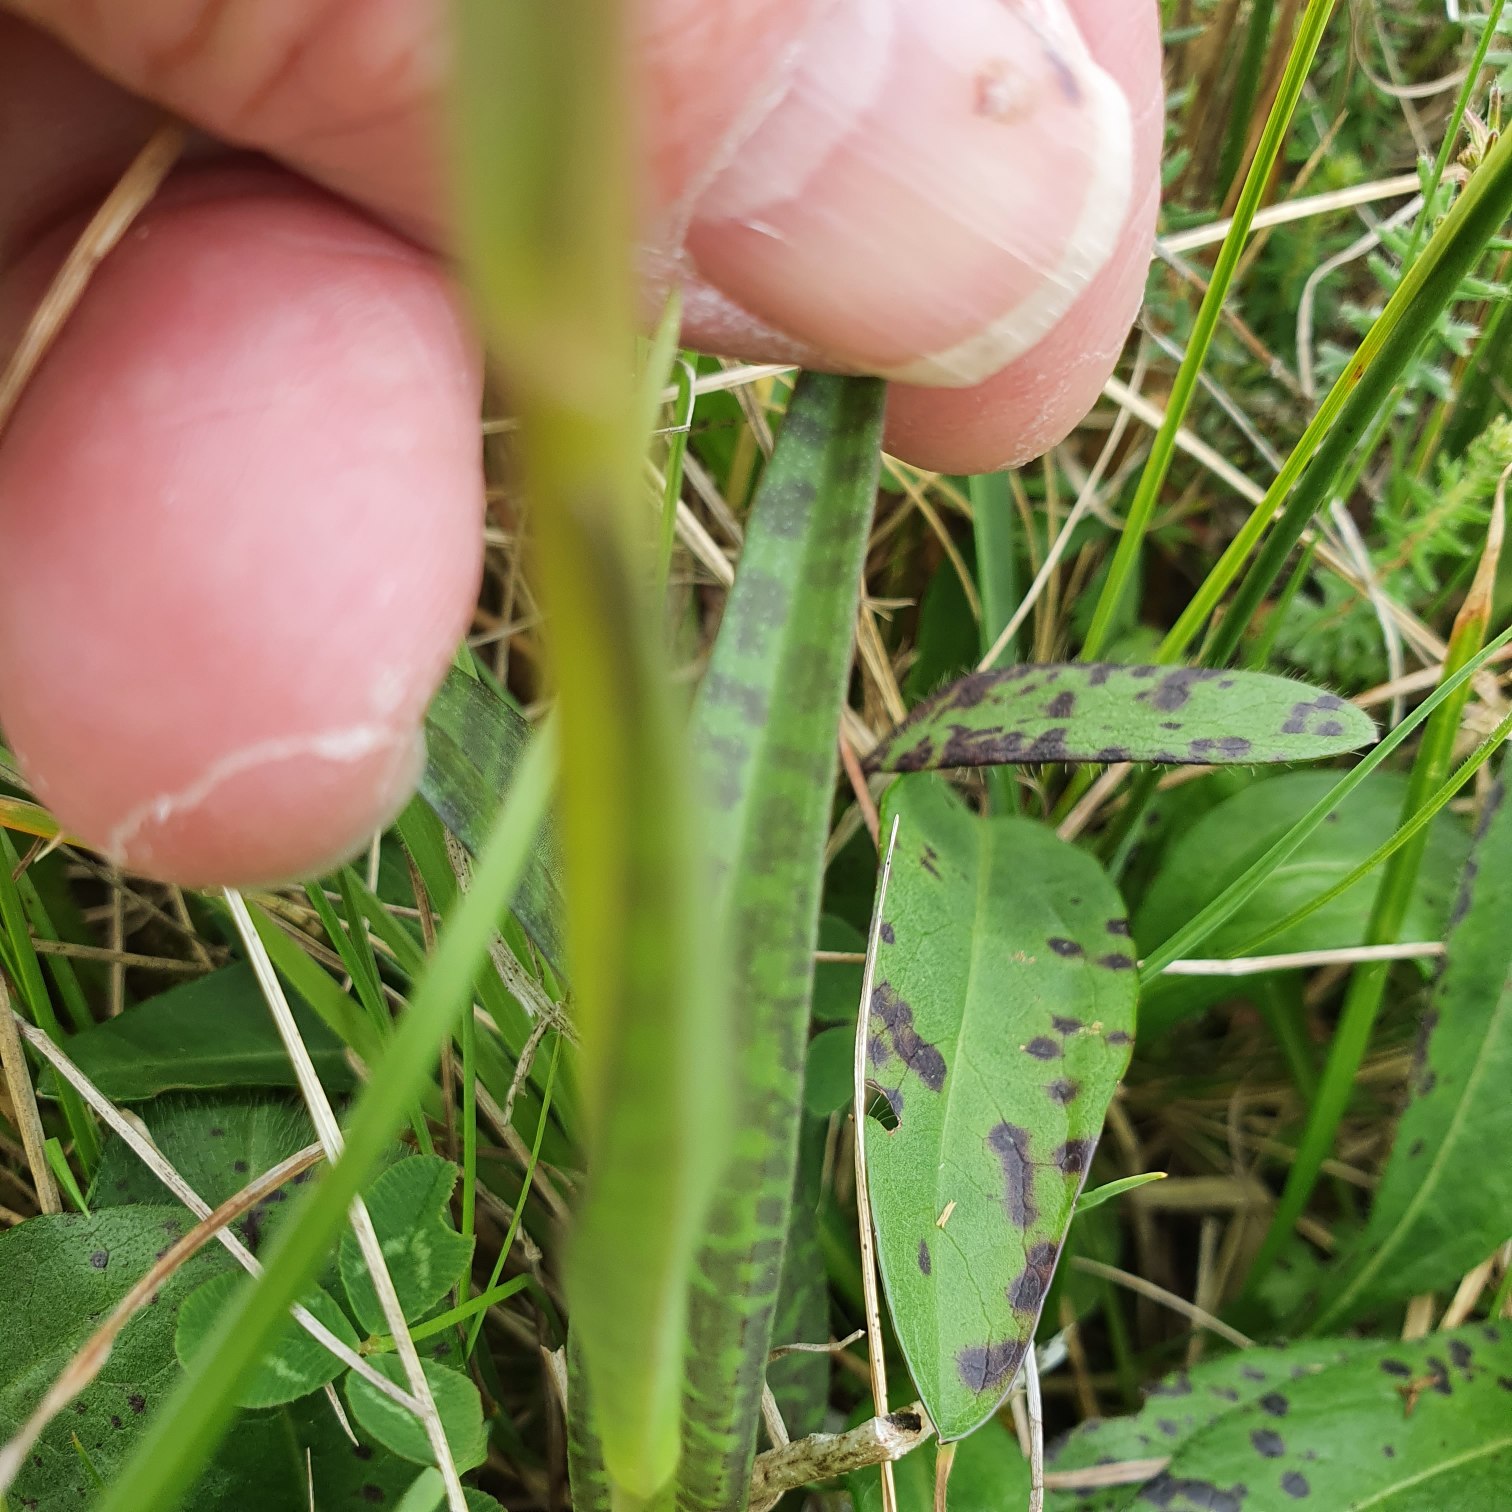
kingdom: Plantae
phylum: Tracheophyta
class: Liliopsida
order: Asparagales
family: Orchidaceae
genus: Dactylorhiza
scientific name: Dactylorhiza maculata
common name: Plettet gøgeurt
